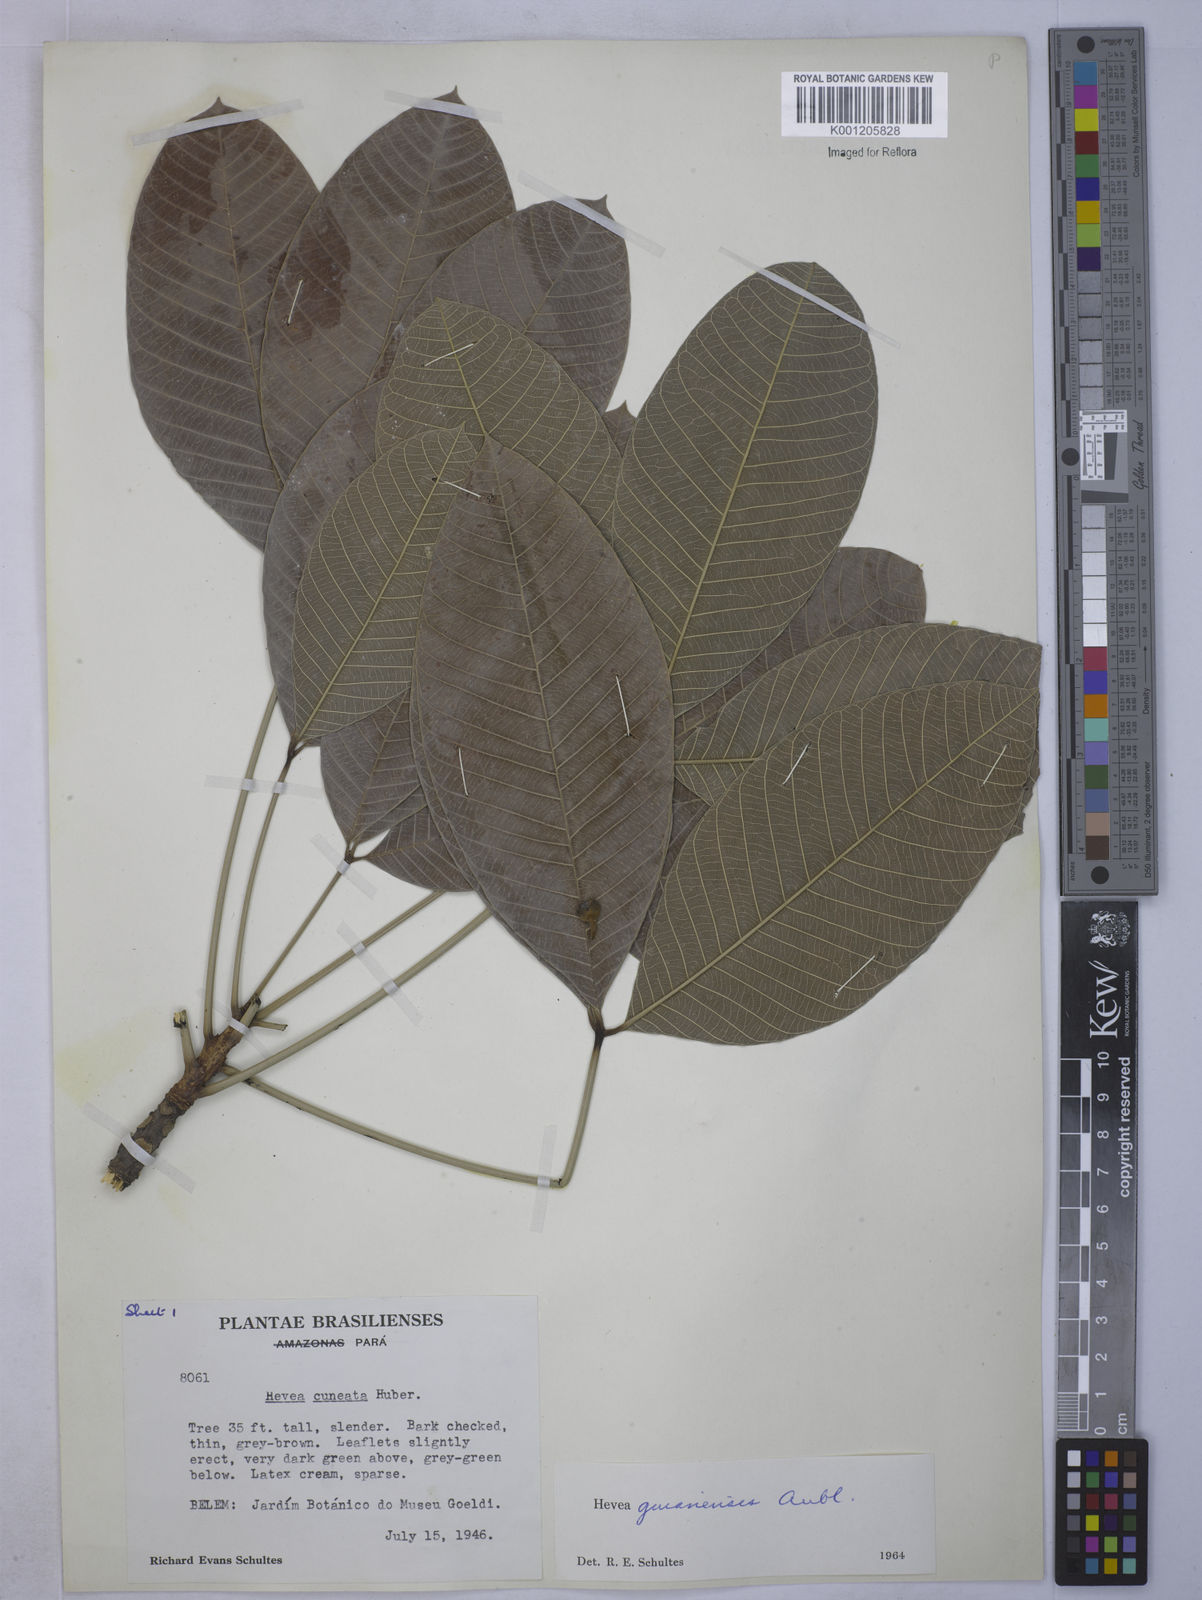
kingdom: Plantae
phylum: Tracheophyta
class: Magnoliopsida
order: Malpighiales
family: Euphorbiaceae
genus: Hevea
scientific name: Hevea guianensis
